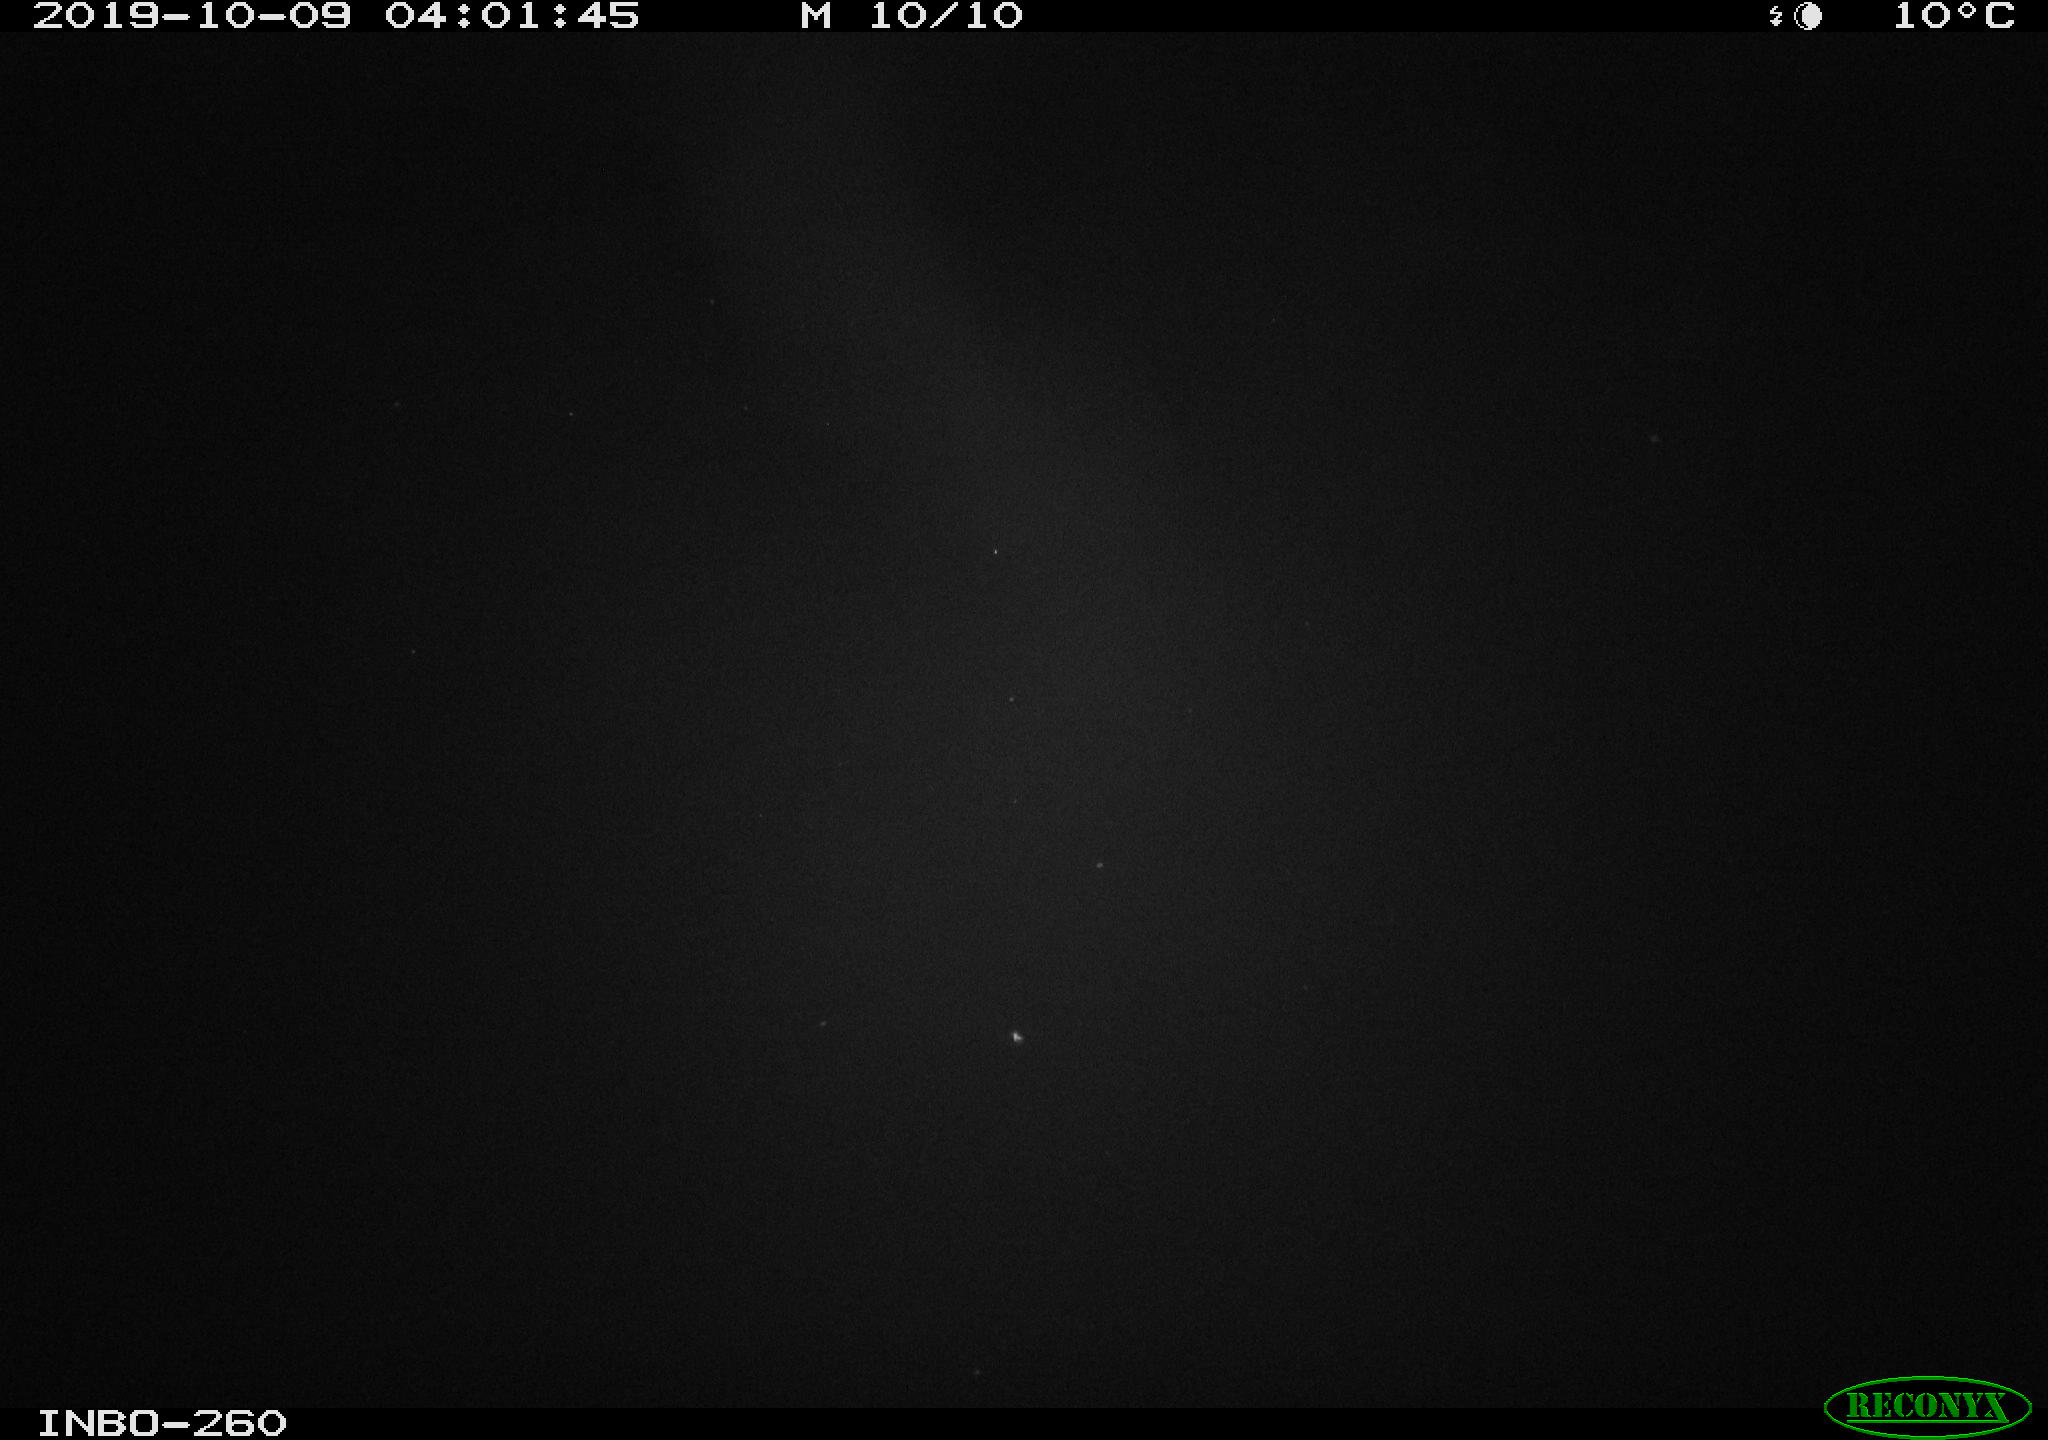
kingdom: Animalia
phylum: Chordata
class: Aves
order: Anseriformes
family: Anatidae
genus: Anas
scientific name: Anas platyrhynchos
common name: Mallard
